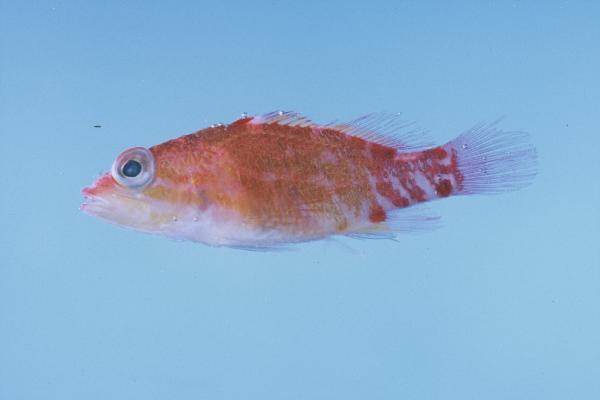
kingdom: Animalia
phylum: Chordata
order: Perciformes
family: Serranidae
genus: Plectranthias
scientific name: Plectranthias winniensis
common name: Redblotch perchlet
